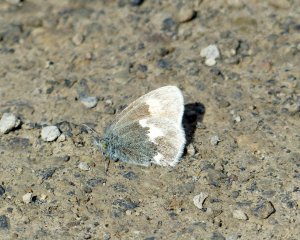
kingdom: Animalia
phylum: Arthropoda
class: Insecta
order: Lepidoptera
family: Nymphalidae
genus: Coenonympha
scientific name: Coenonympha tullia
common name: Large Heath
